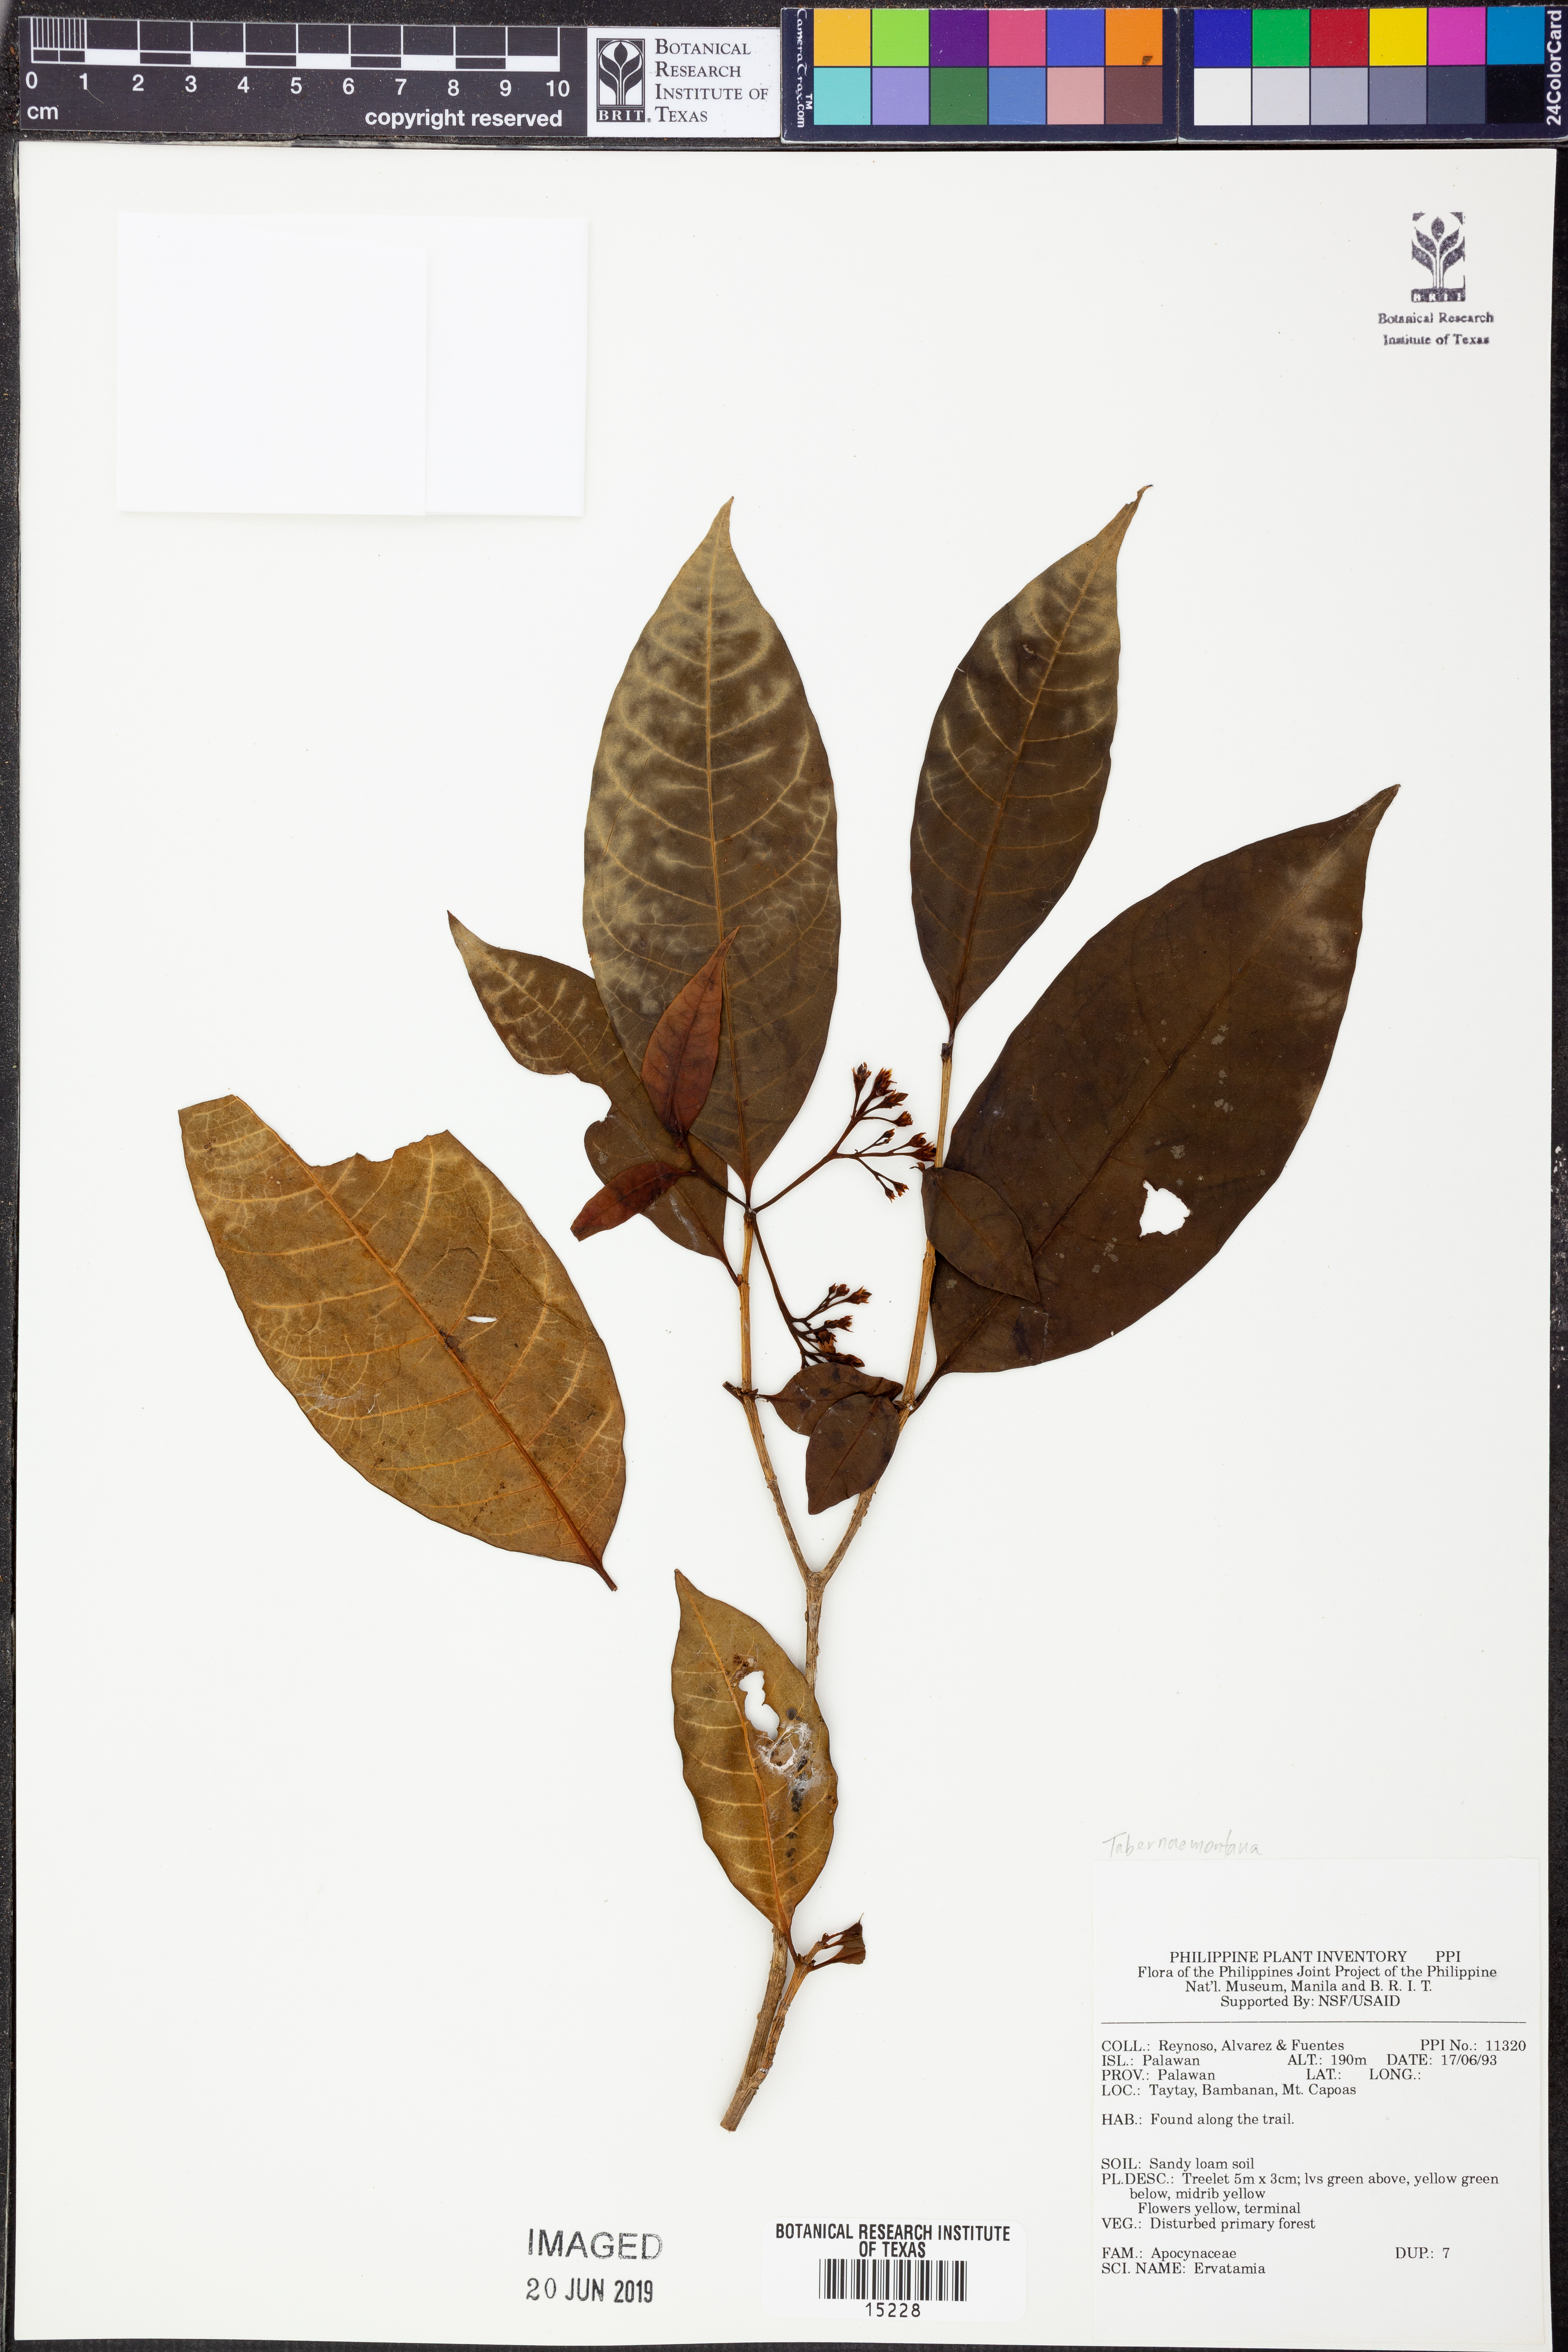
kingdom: Plantae
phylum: Tracheophyta
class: Magnoliopsida
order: Gentianales
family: Apocynaceae
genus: Tabernaemontana
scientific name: Tabernaemontana
